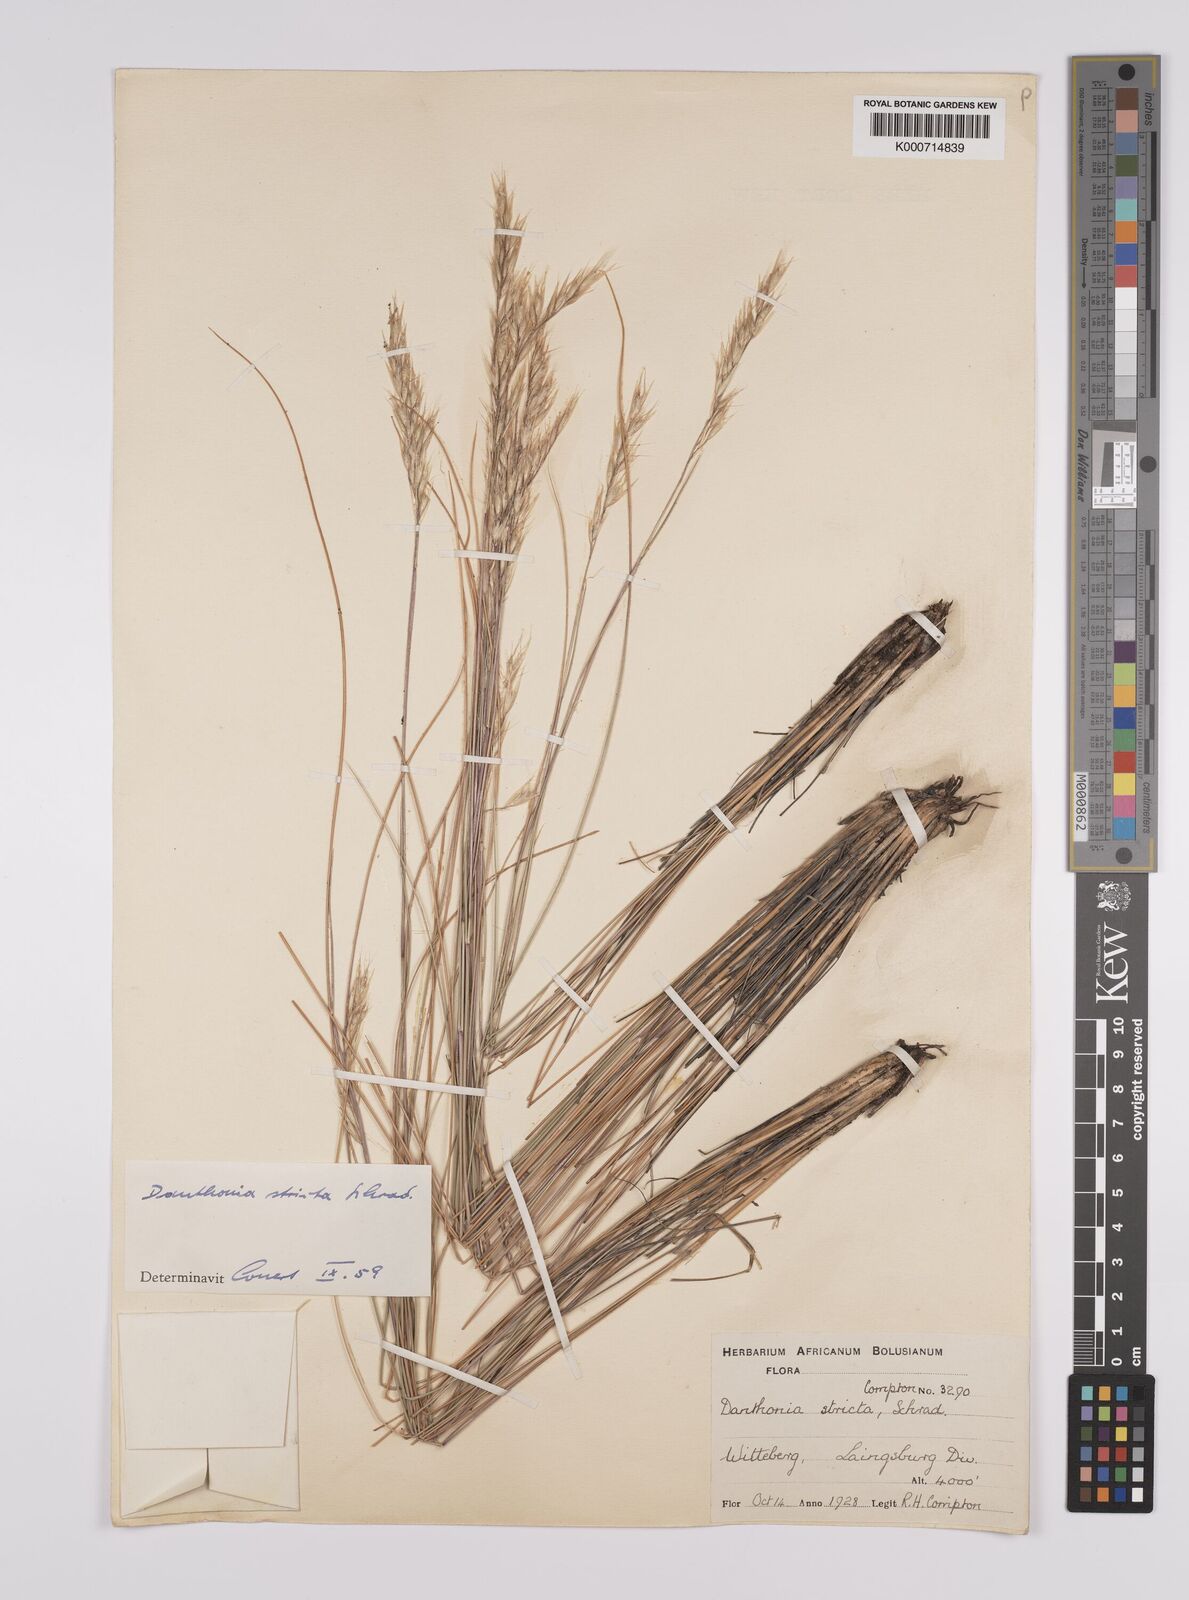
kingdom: Plantae
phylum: Tracheophyta
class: Liliopsida
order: Poales
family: Poaceae
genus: Rytidosperma
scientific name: Rytidosperma
